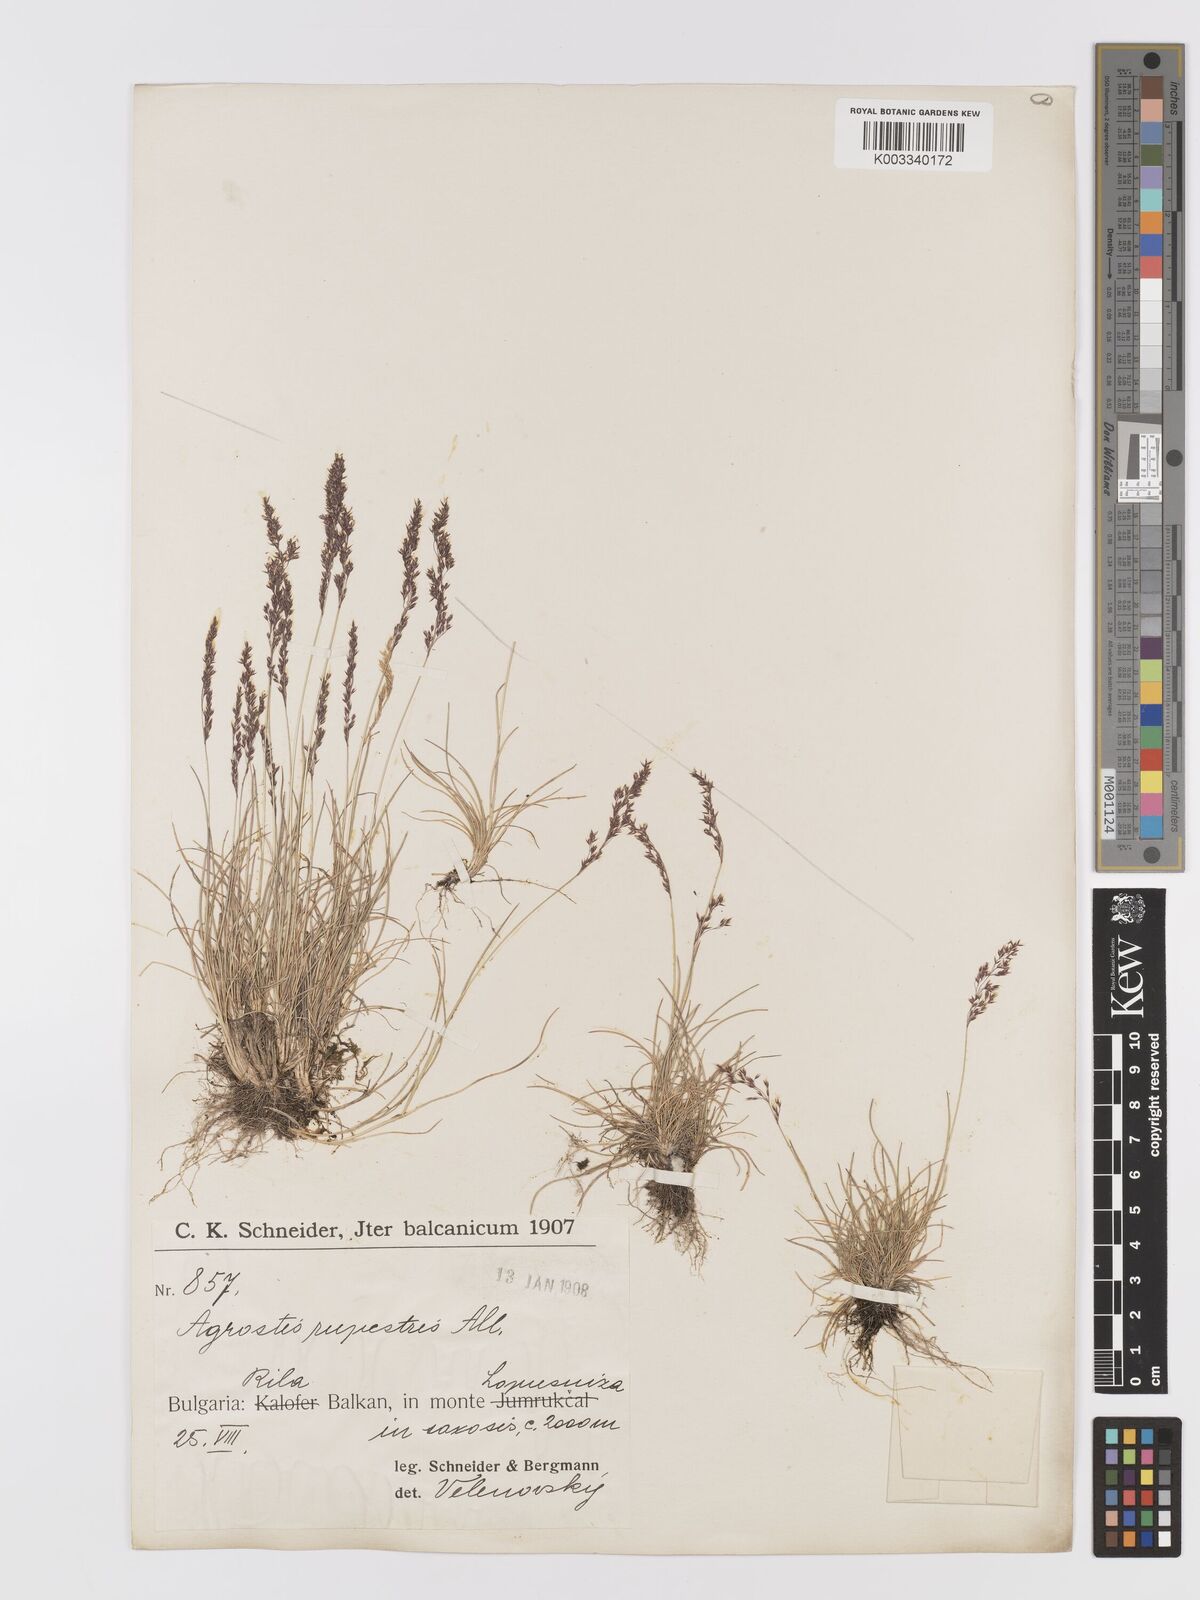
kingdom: Plantae
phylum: Tracheophyta
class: Liliopsida
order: Poales
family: Poaceae
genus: Agrostis
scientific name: Agrostis rupestris
